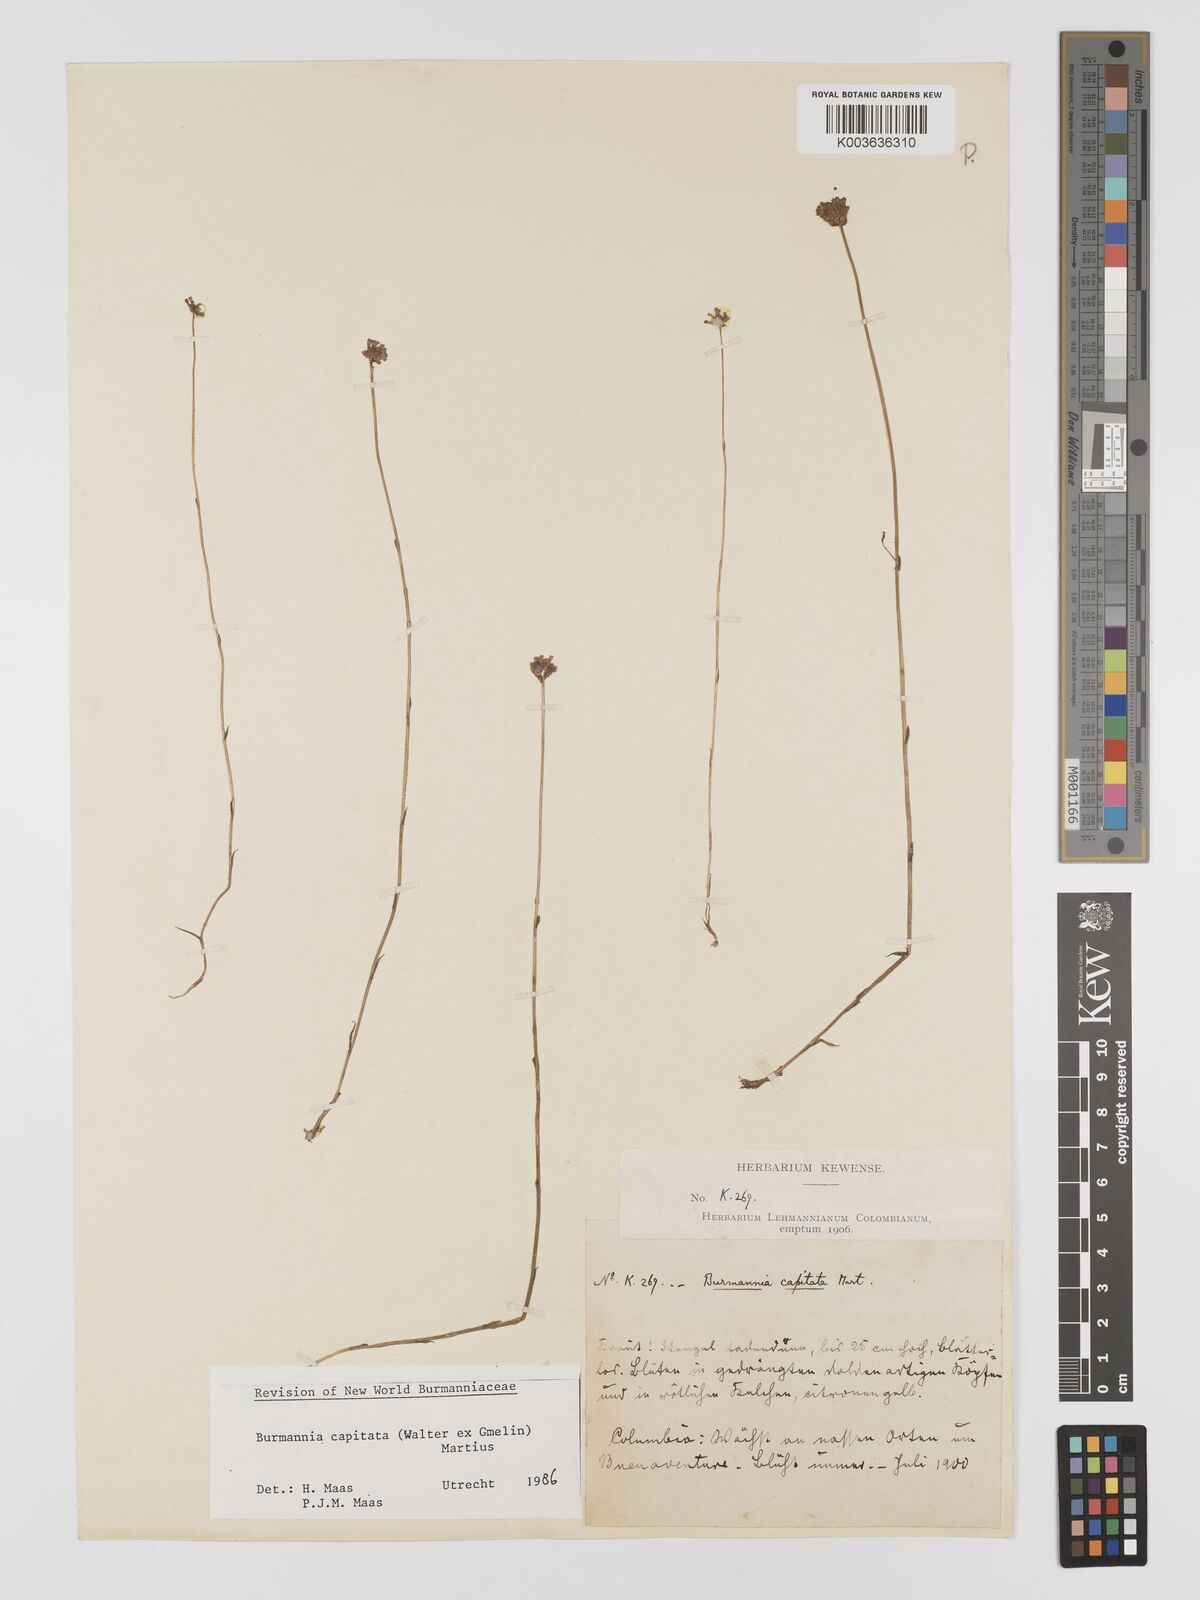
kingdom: Plantae
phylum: Tracheophyta
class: Liliopsida
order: Dioscoreales
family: Burmanniaceae
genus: Burmannia
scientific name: Burmannia capitata
